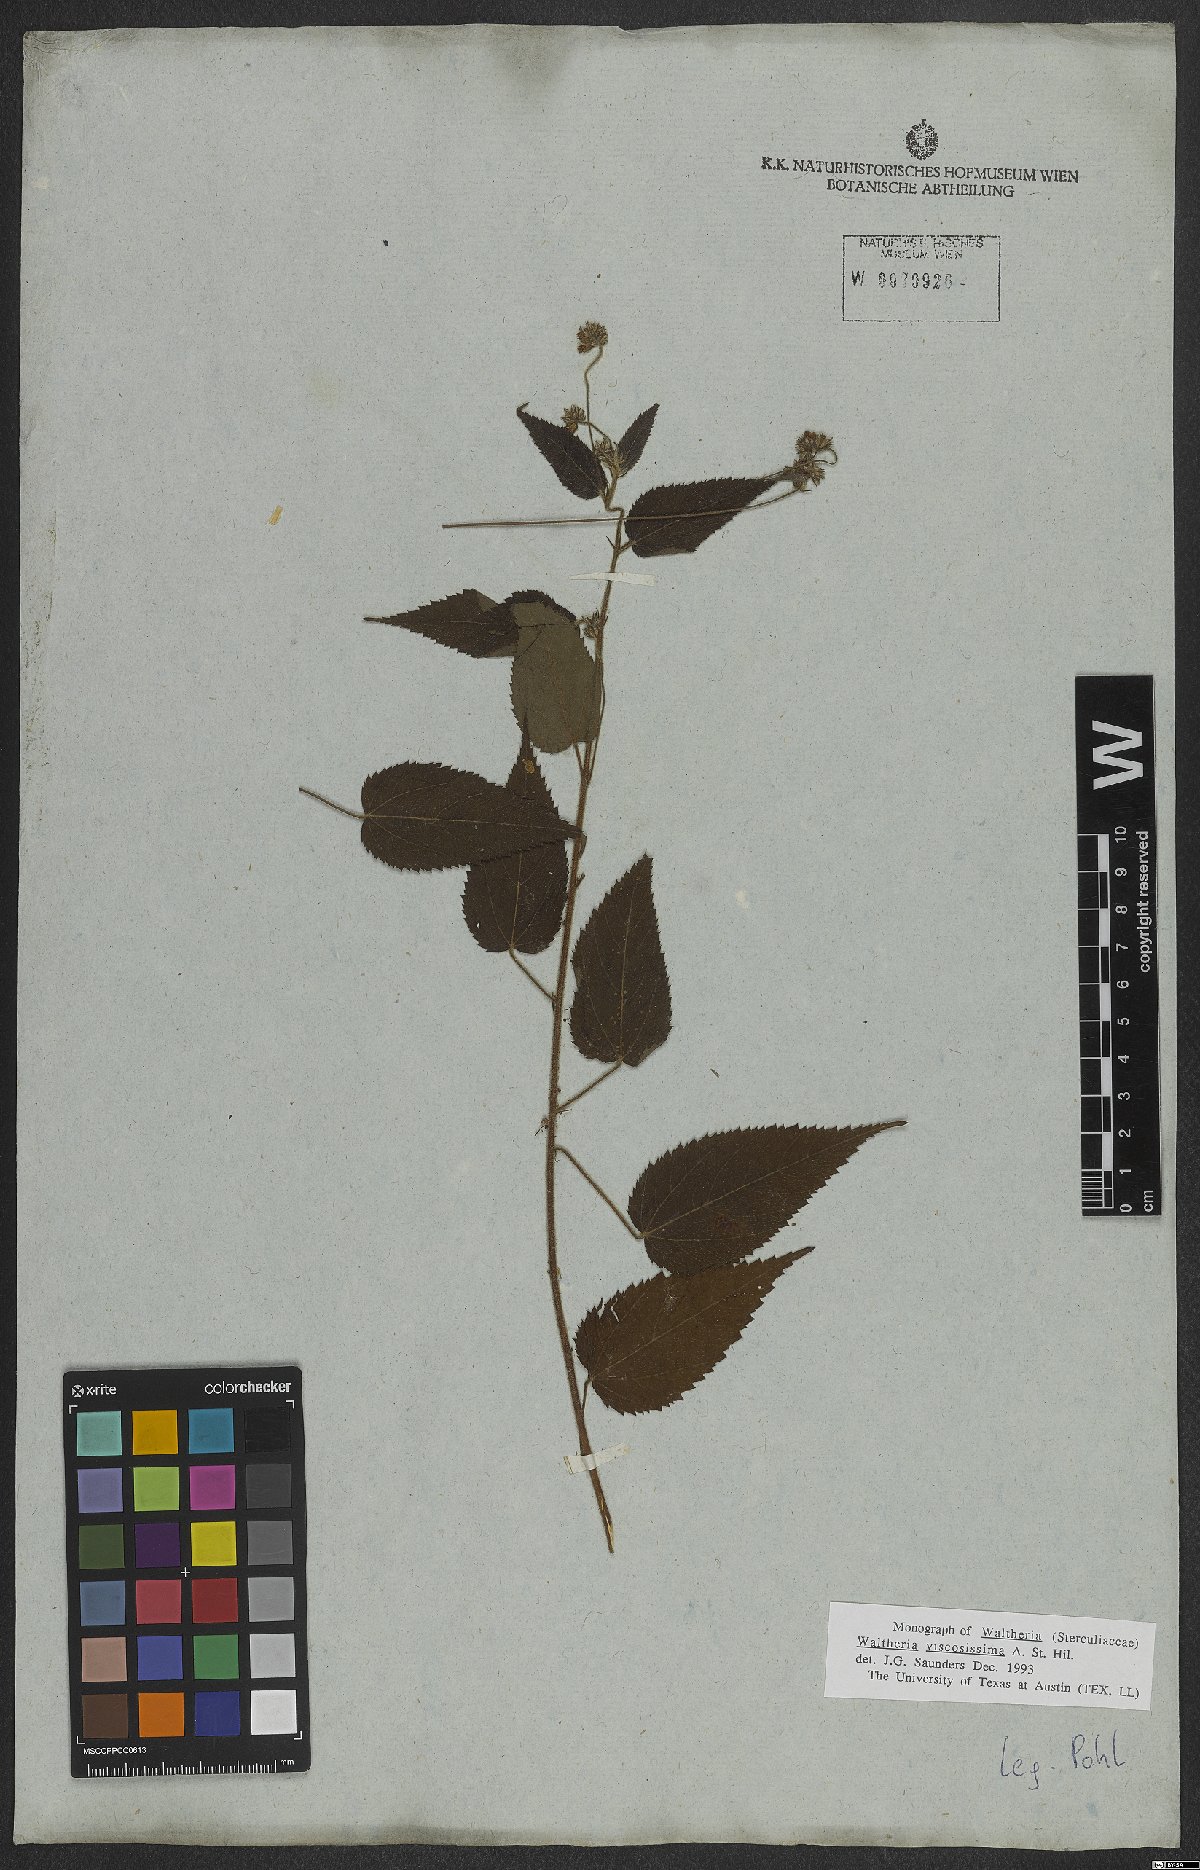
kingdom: Plantae
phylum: Tracheophyta
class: Magnoliopsida
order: Malvales
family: Malvaceae
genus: Waltheria
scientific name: Waltheria viscosissima
